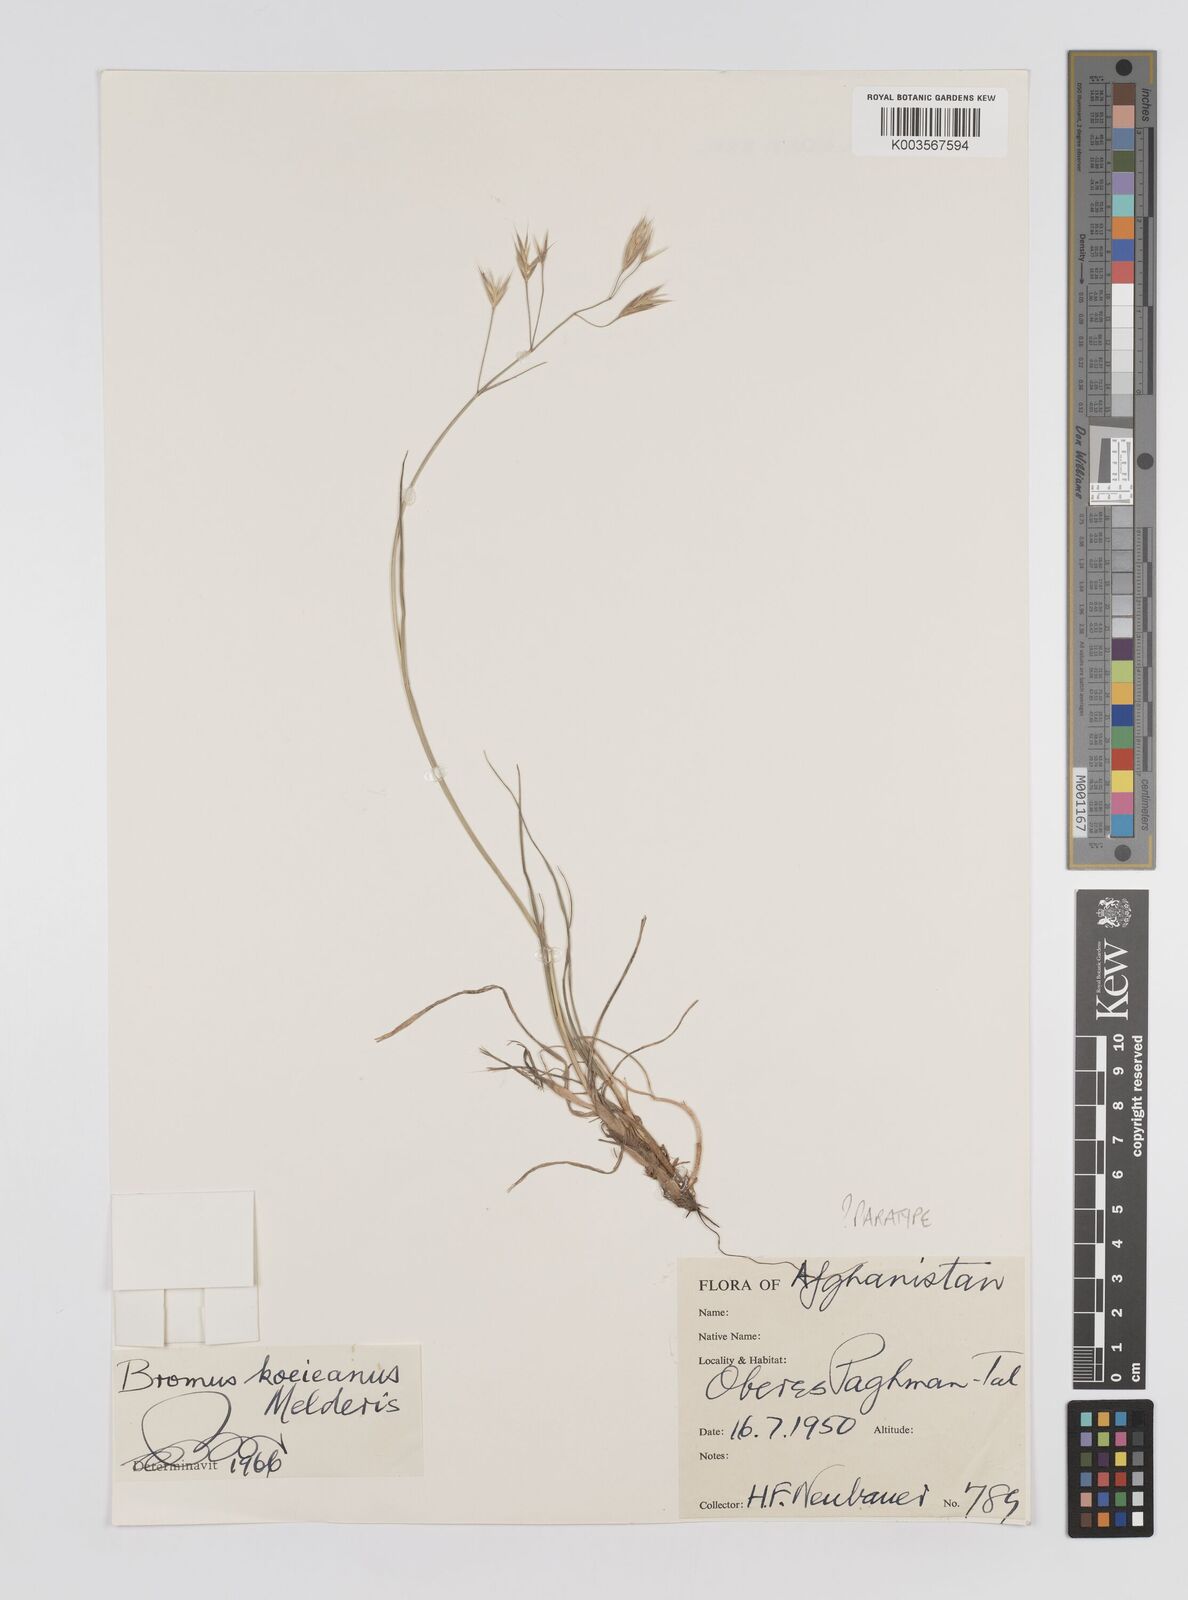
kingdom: Plantae
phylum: Tracheophyta
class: Liliopsida
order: Poales
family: Poaceae
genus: Bromus
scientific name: Bromus koeieanus
